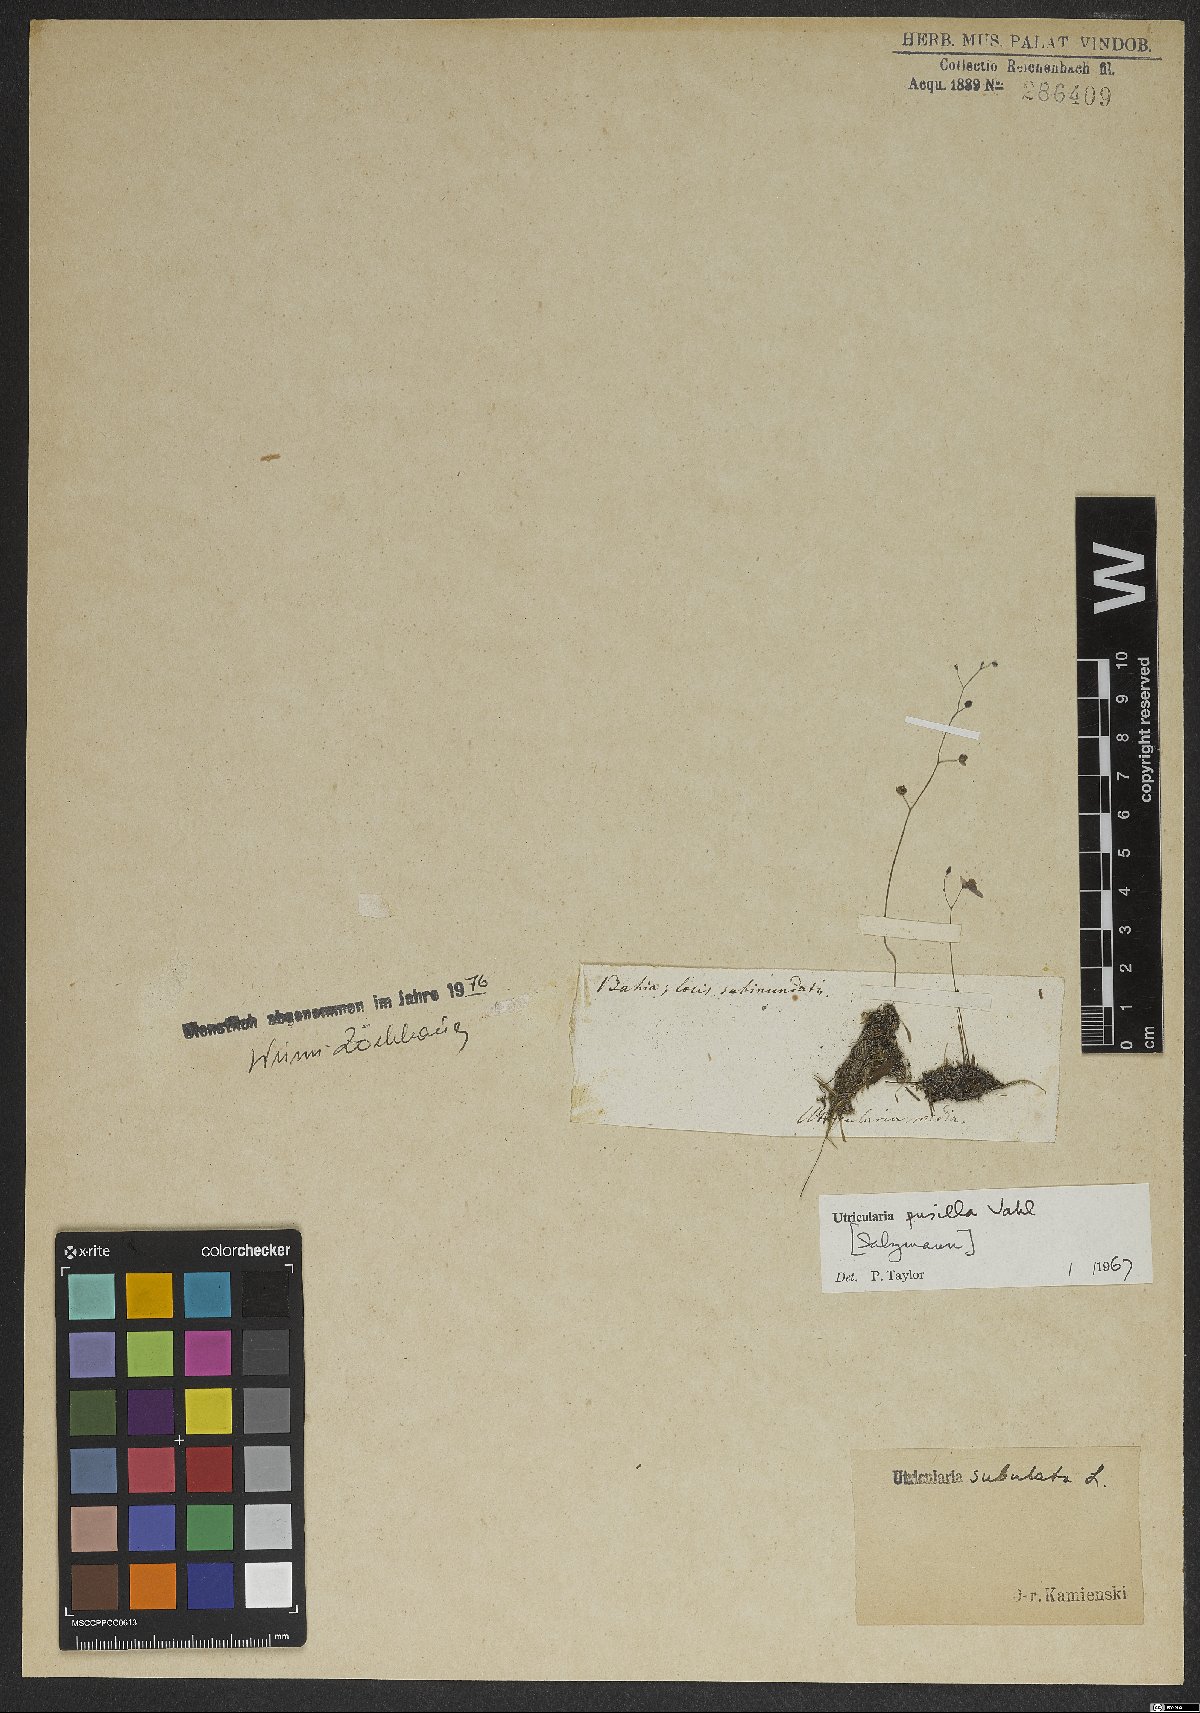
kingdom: Plantae
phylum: Tracheophyta
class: Magnoliopsida
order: Lamiales
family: Lentibulariaceae
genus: Utricularia
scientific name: Utricularia pusilla
